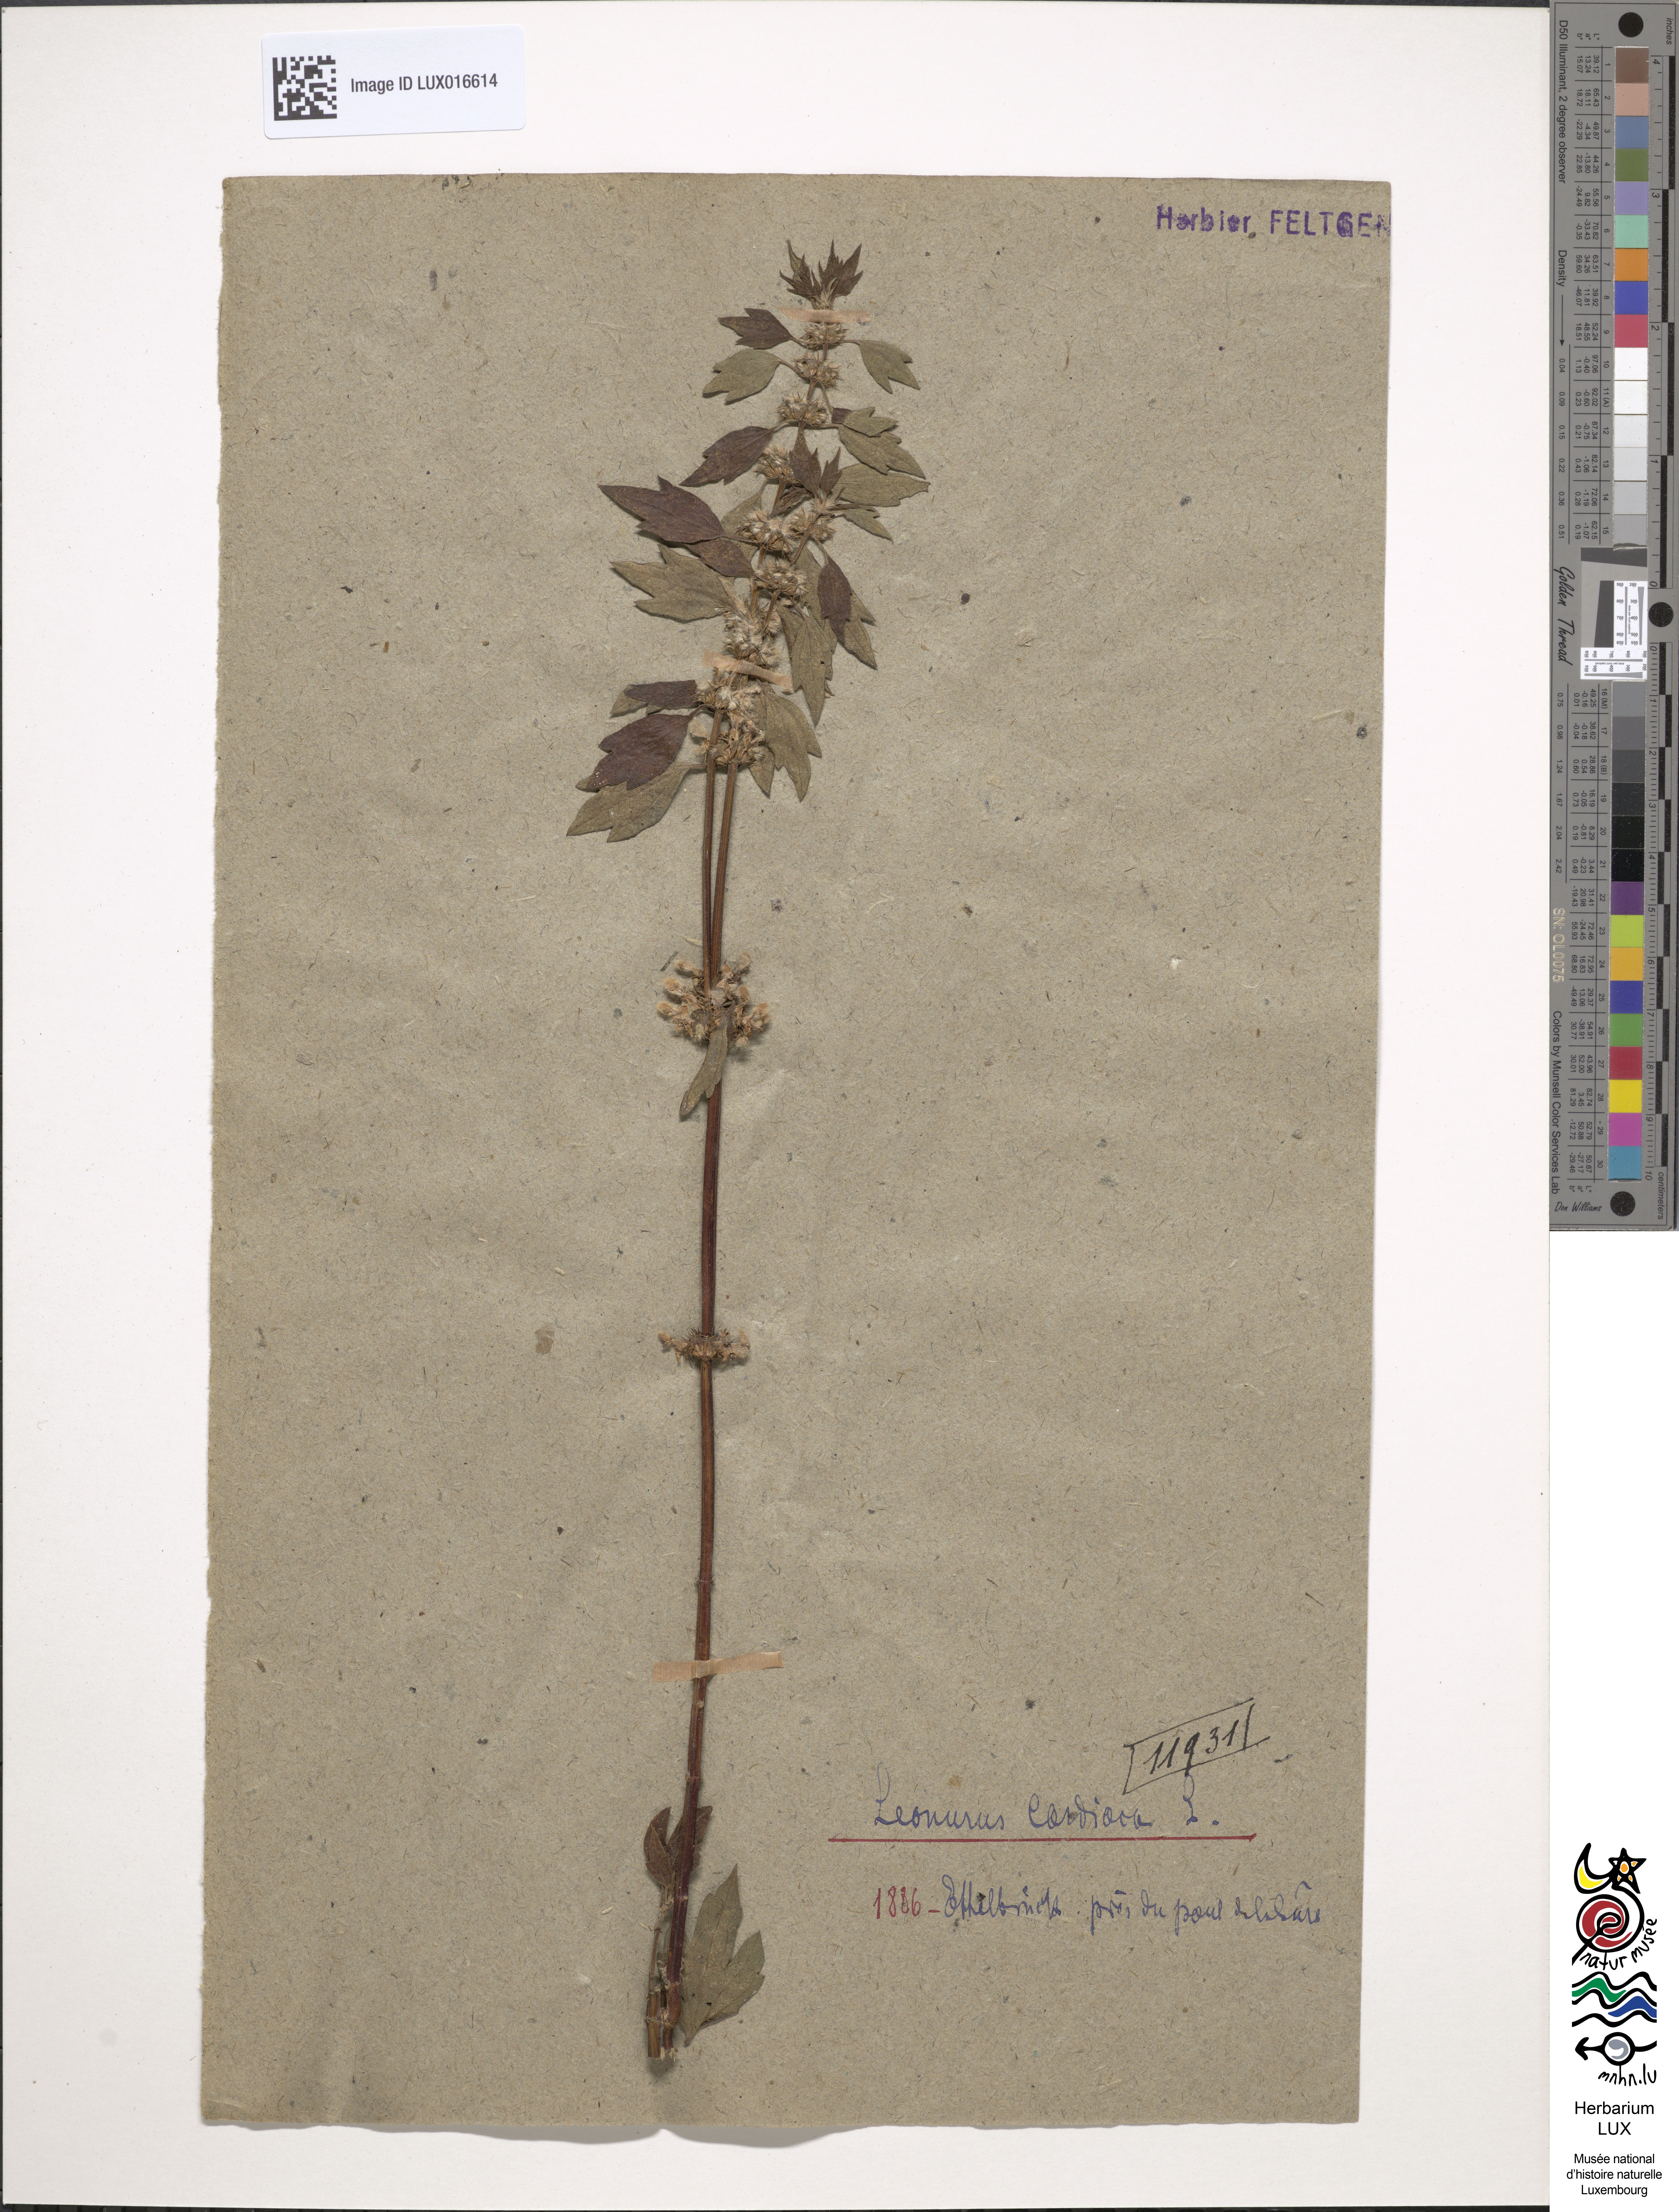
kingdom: Plantae
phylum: Tracheophyta
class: Magnoliopsida
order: Lamiales
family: Lamiaceae
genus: Leonurus
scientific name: Leonurus cardiaca
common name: Motherwort
